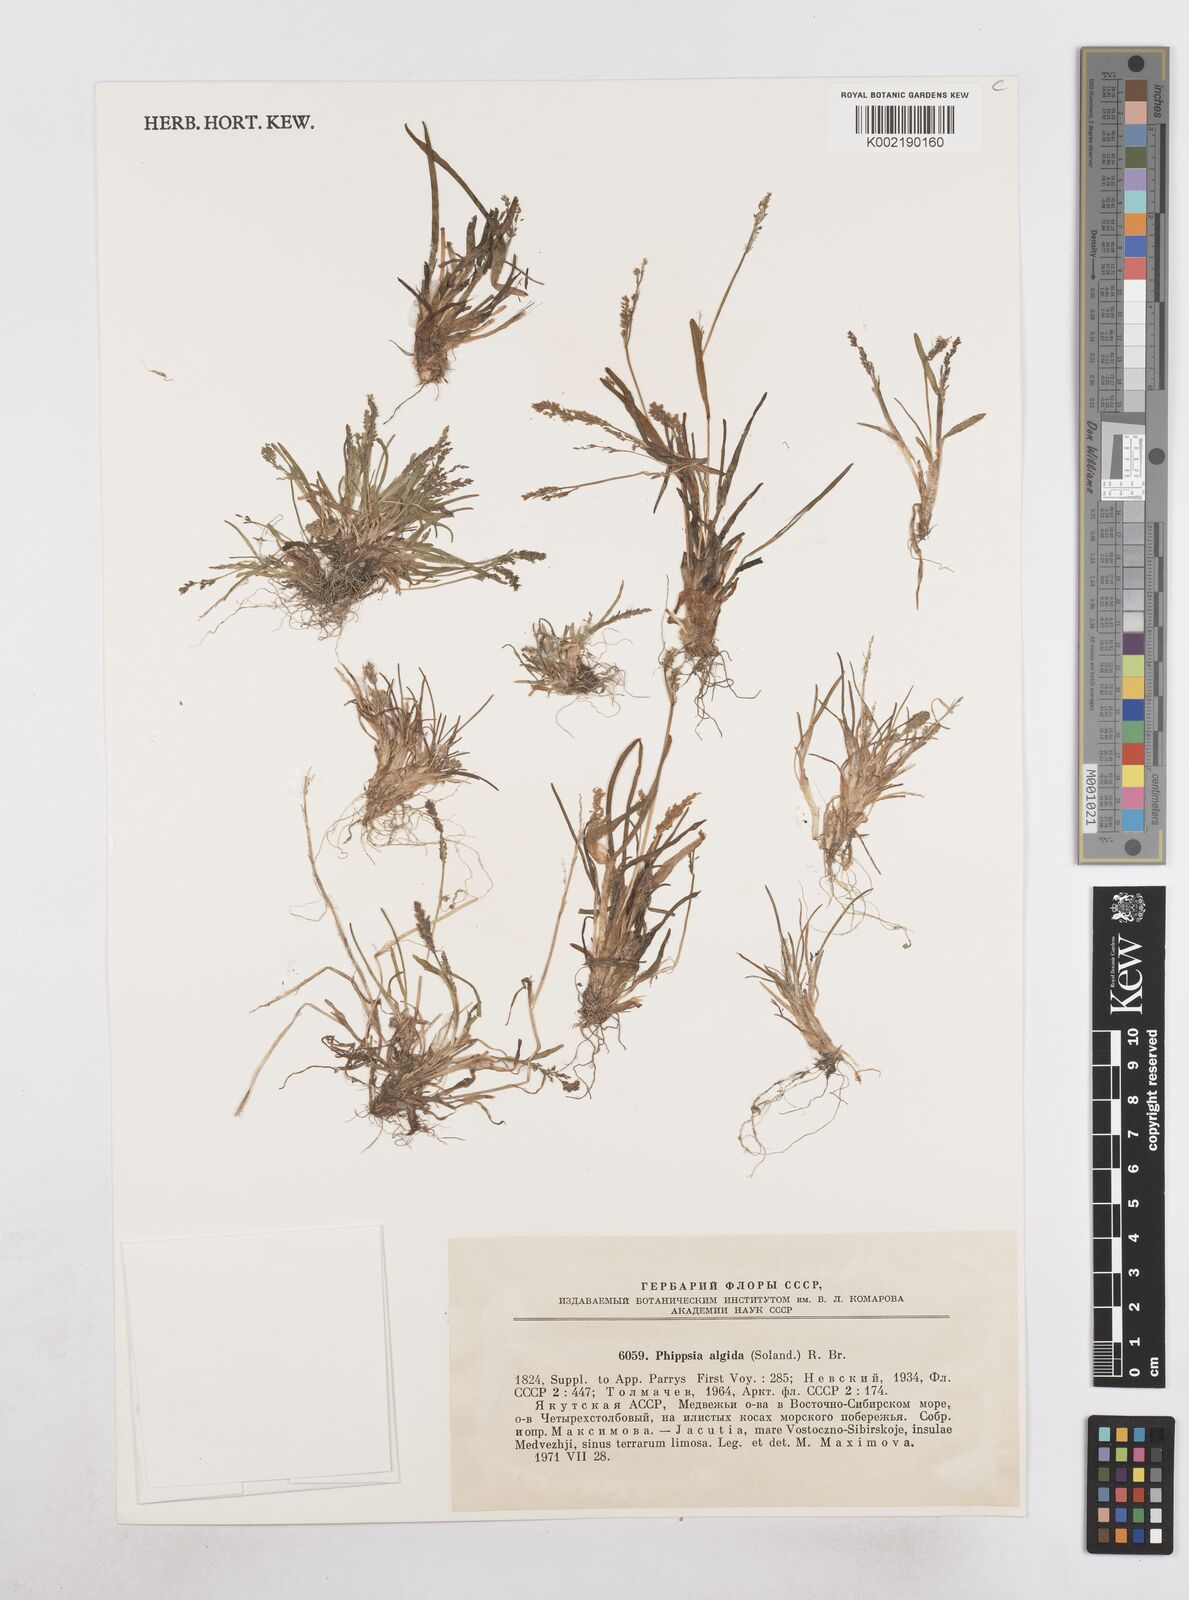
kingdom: Plantae
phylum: Tracheophyta
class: Liliopsida
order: Poales
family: Poaceae
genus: Phippsia
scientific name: Phippsia algida
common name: Ice grass
